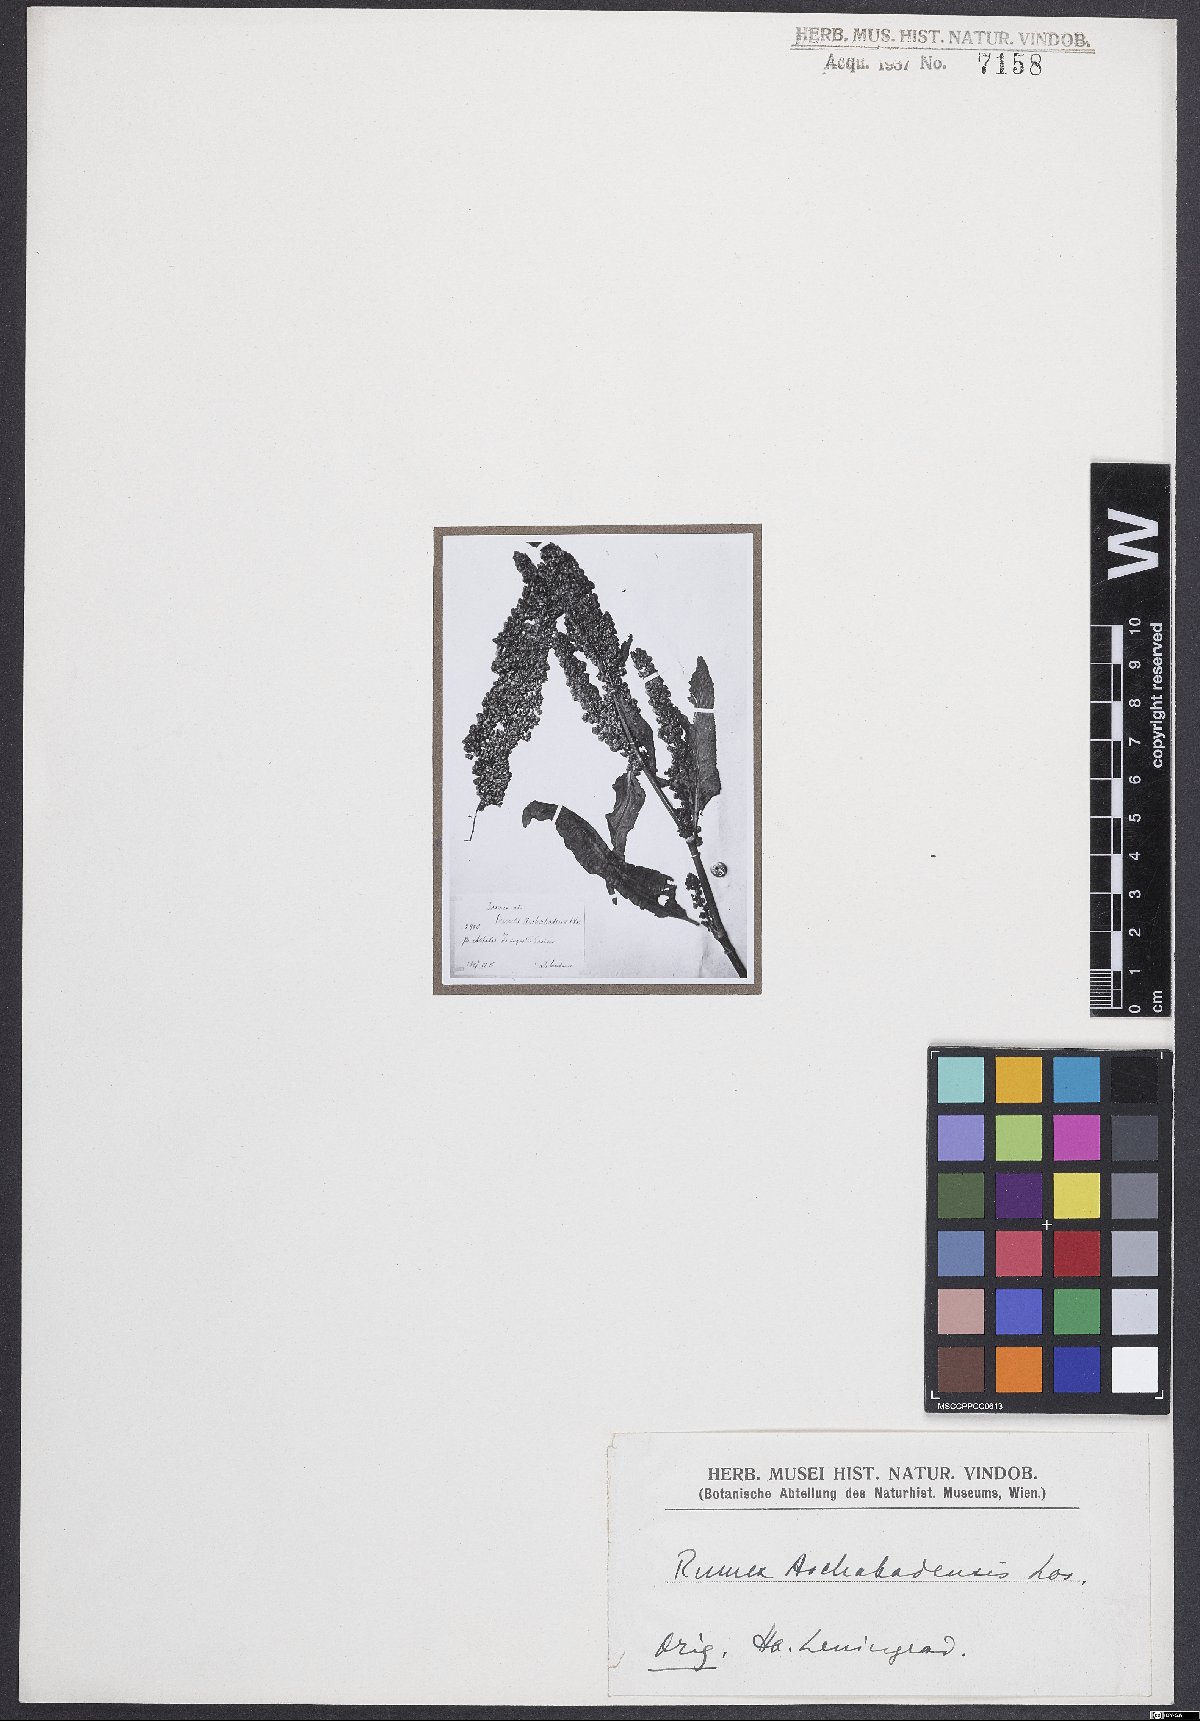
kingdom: Plantae
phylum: Tracheophyta
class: Magnoliopsida
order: Caryophyllales
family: Polygonaceae
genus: Rumex
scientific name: Rumex
